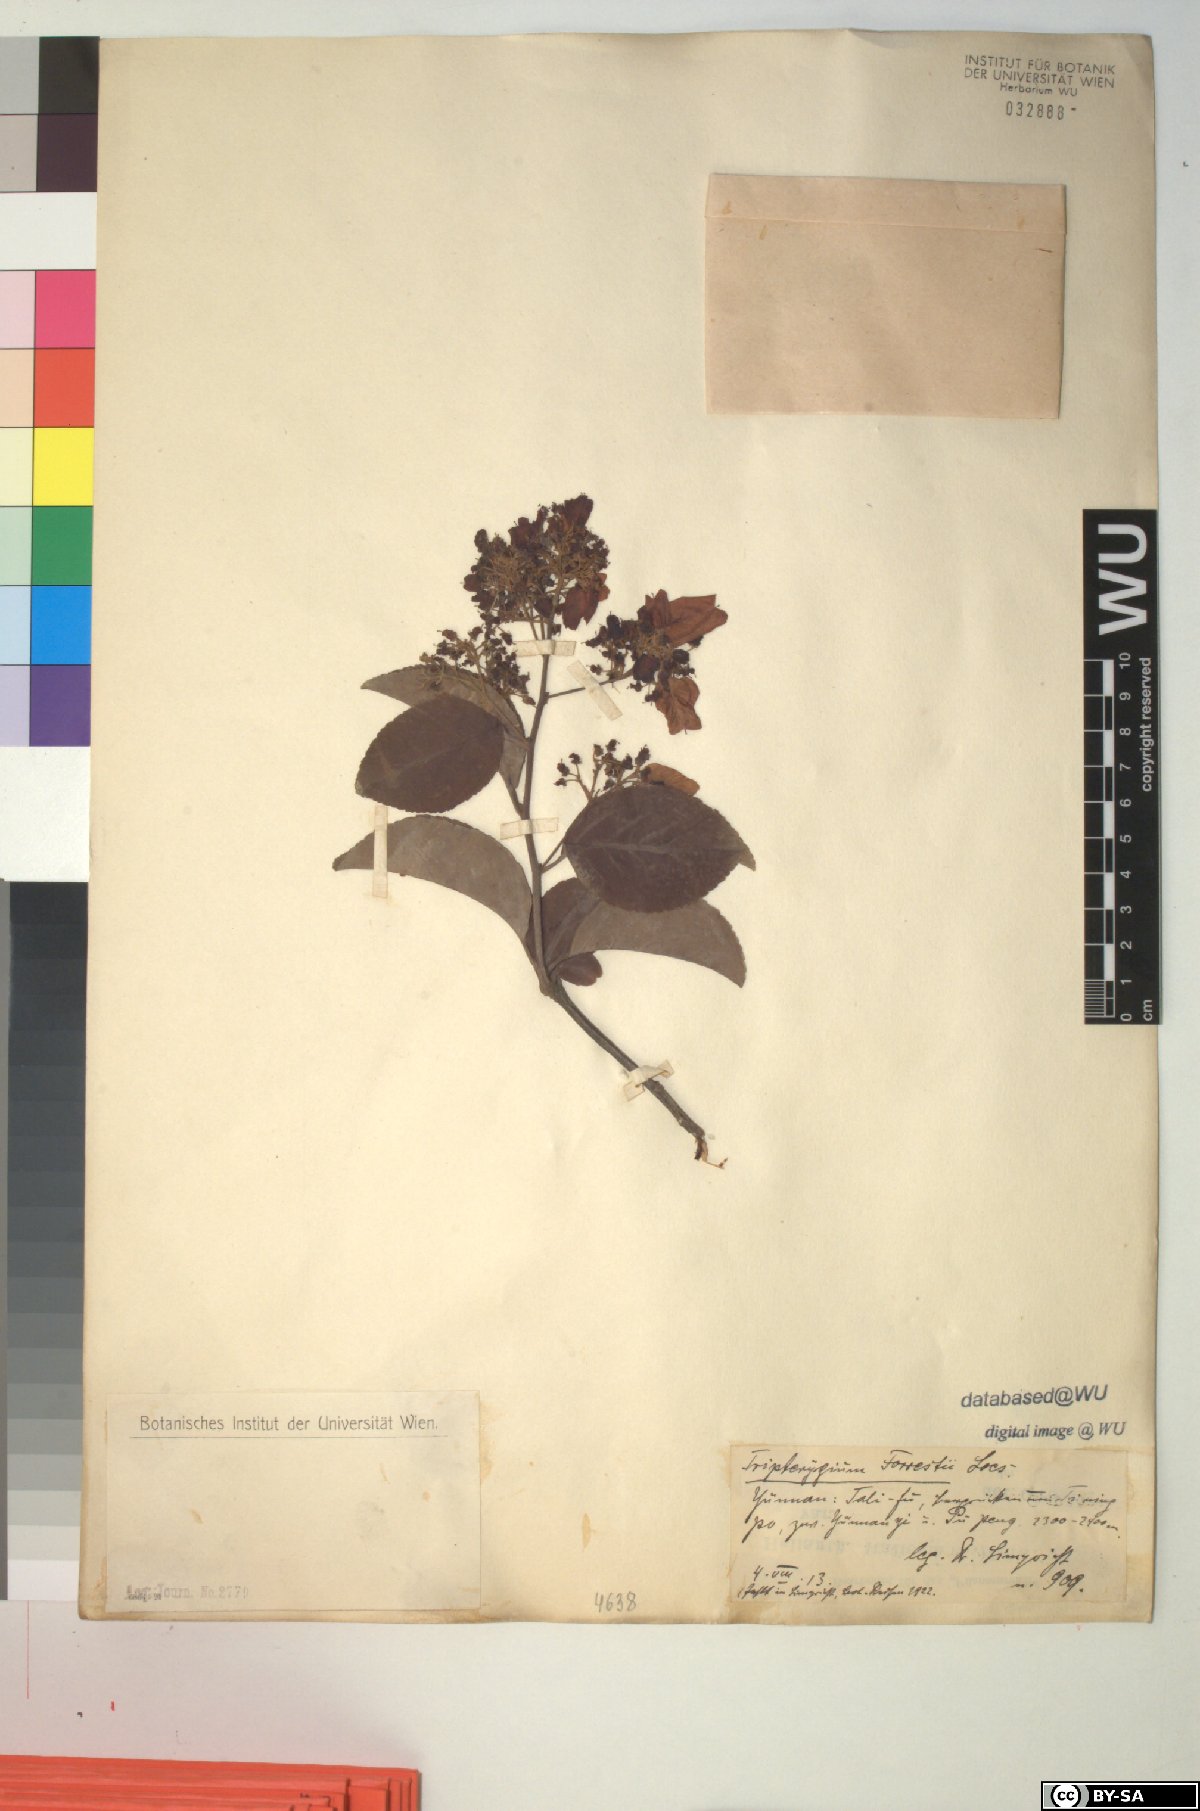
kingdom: Plantae
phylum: Tracheophyta
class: Magnoliopsida
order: Celastrales
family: Celastraceae
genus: Tripterygium
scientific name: Tripterygium wilfordii
